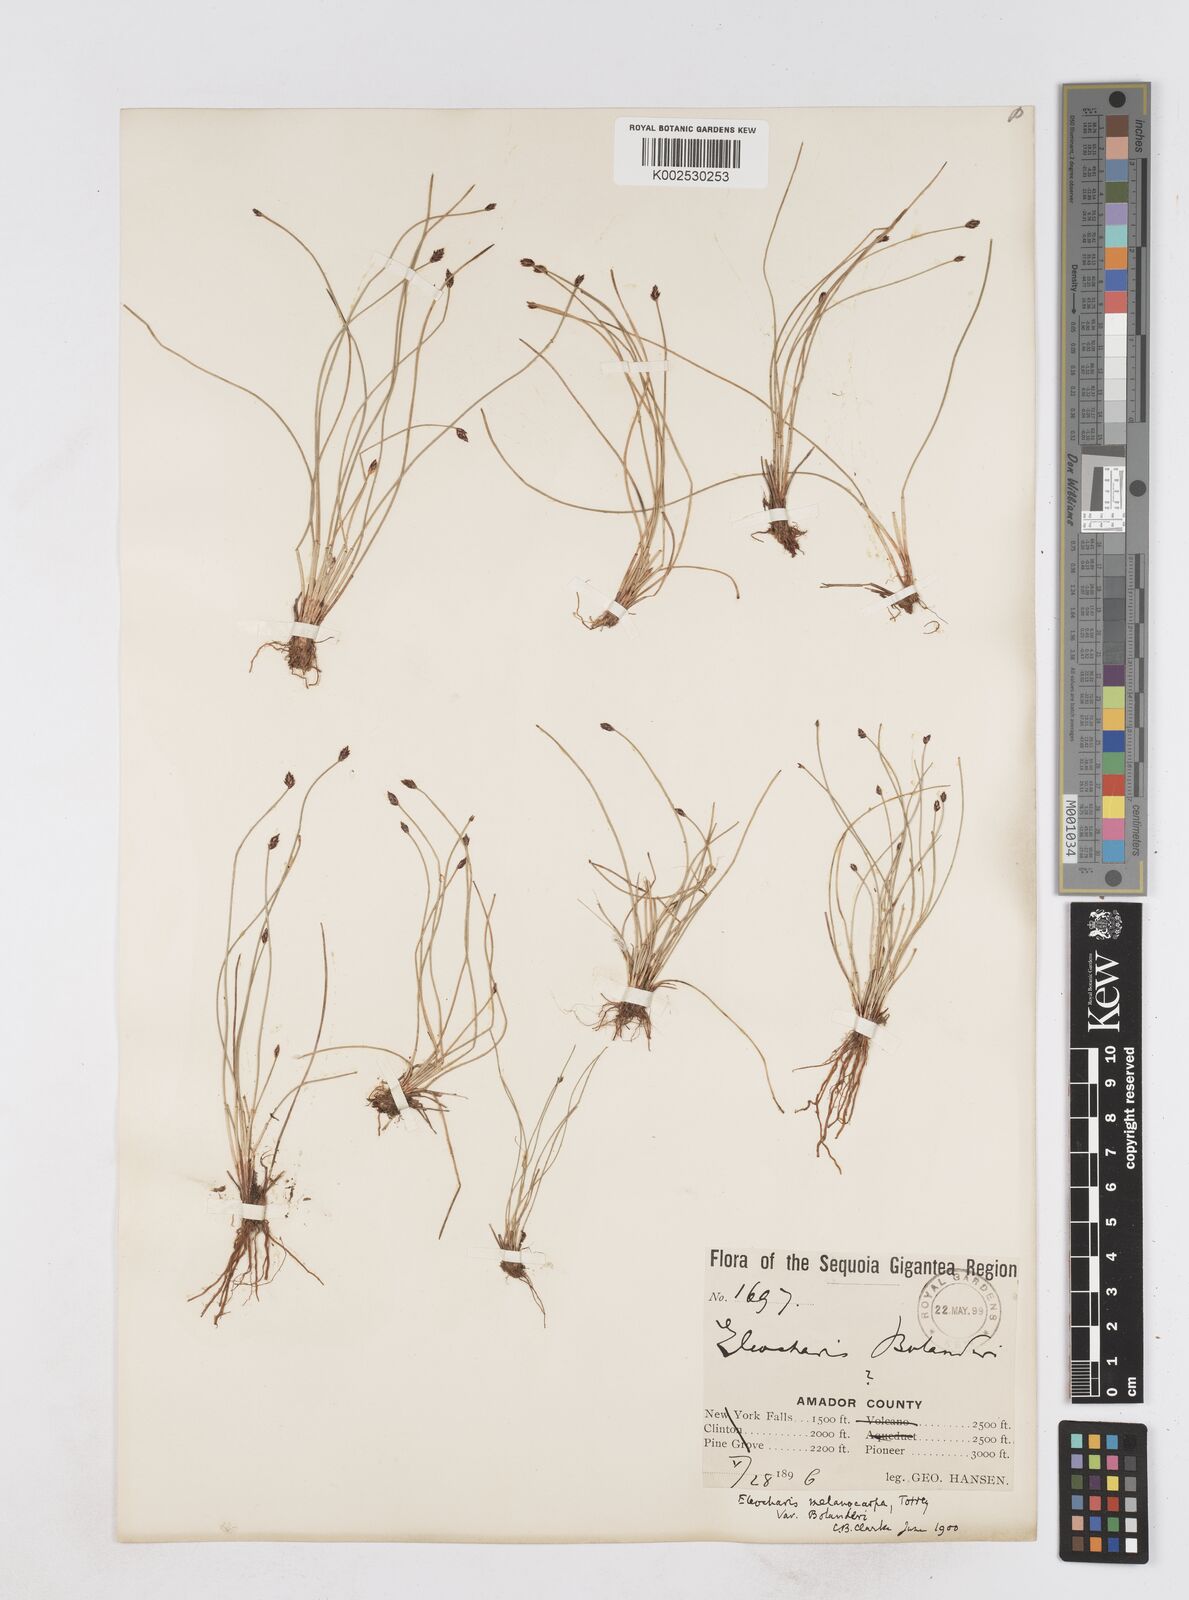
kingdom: Plantae
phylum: Tracheophyta
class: Liliopsida
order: Poales
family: Cyperaceae
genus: Eleocharis
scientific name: Eleocharis bolanderi
